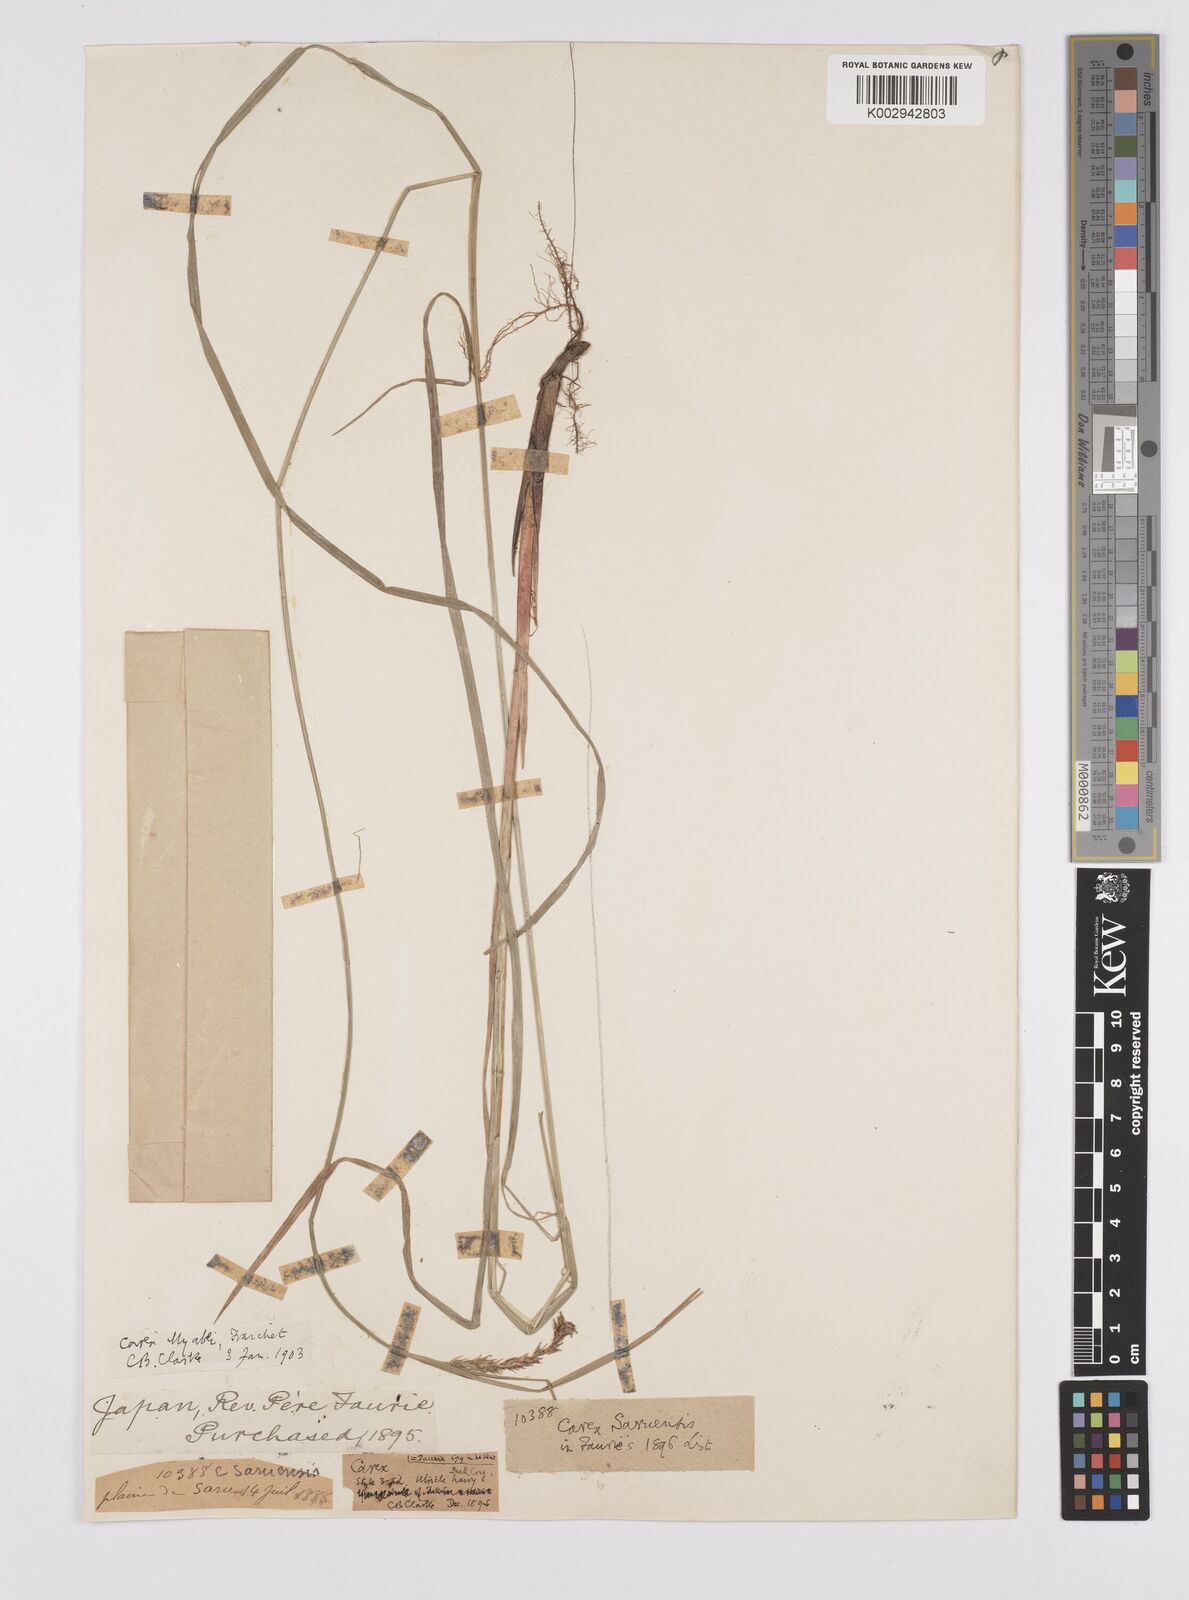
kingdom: Plantae
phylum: Tracheophyta
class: Liliopsida
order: Poales
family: Cyperaceae
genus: Carex
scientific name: Carex miyabei
